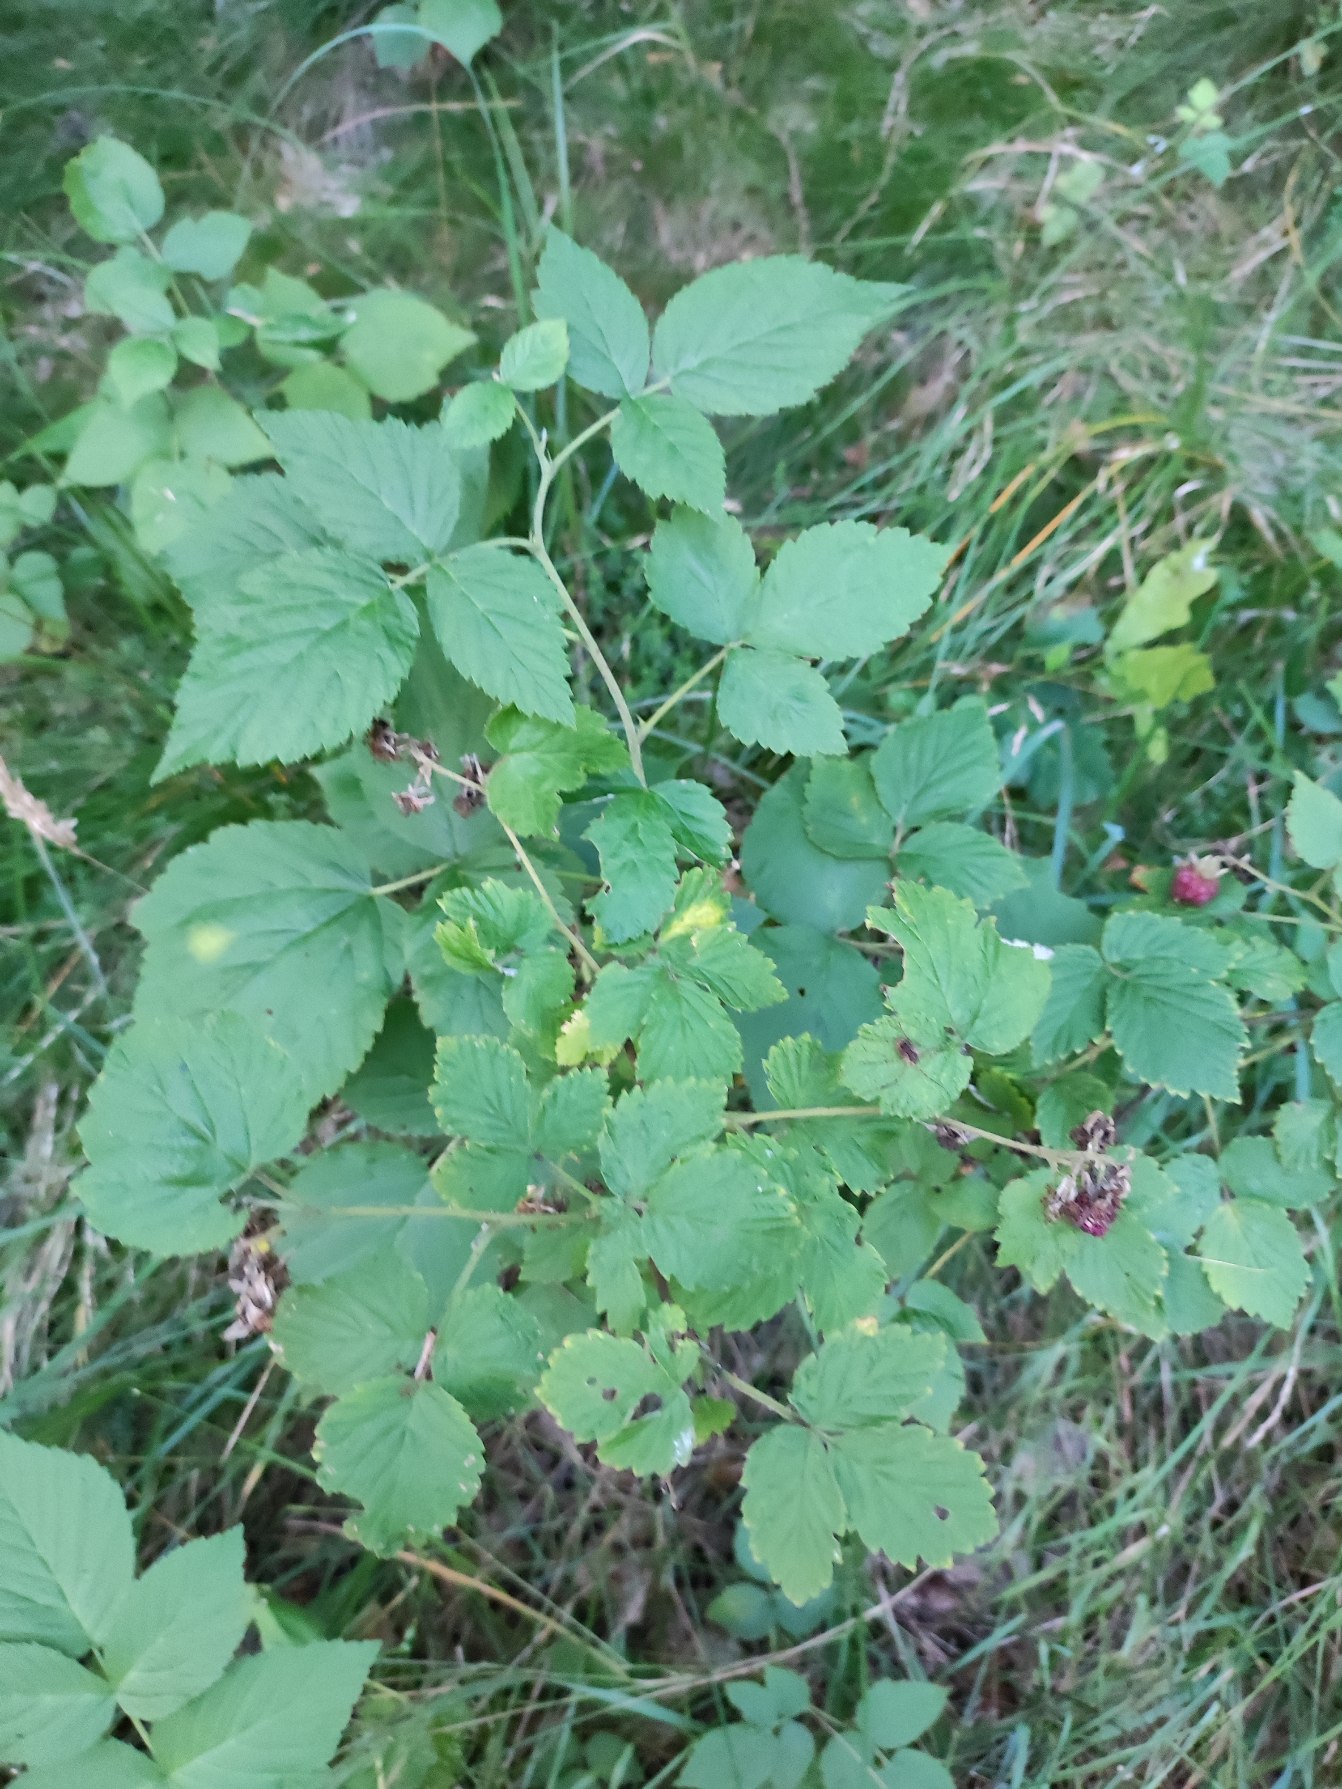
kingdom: Plantae
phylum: Tracheophyta
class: Magnoliopsida
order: Rosales
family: Rosaceae
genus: Rubus
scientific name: Rubus idaeus
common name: Hindbær
